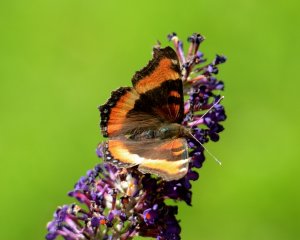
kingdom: Animalia
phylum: Arthropoda
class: Insecta
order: Lepidoptera
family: Nymphalidae
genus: Aglais
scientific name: Aglais milberti
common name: Milbert's Tortoiseshell
